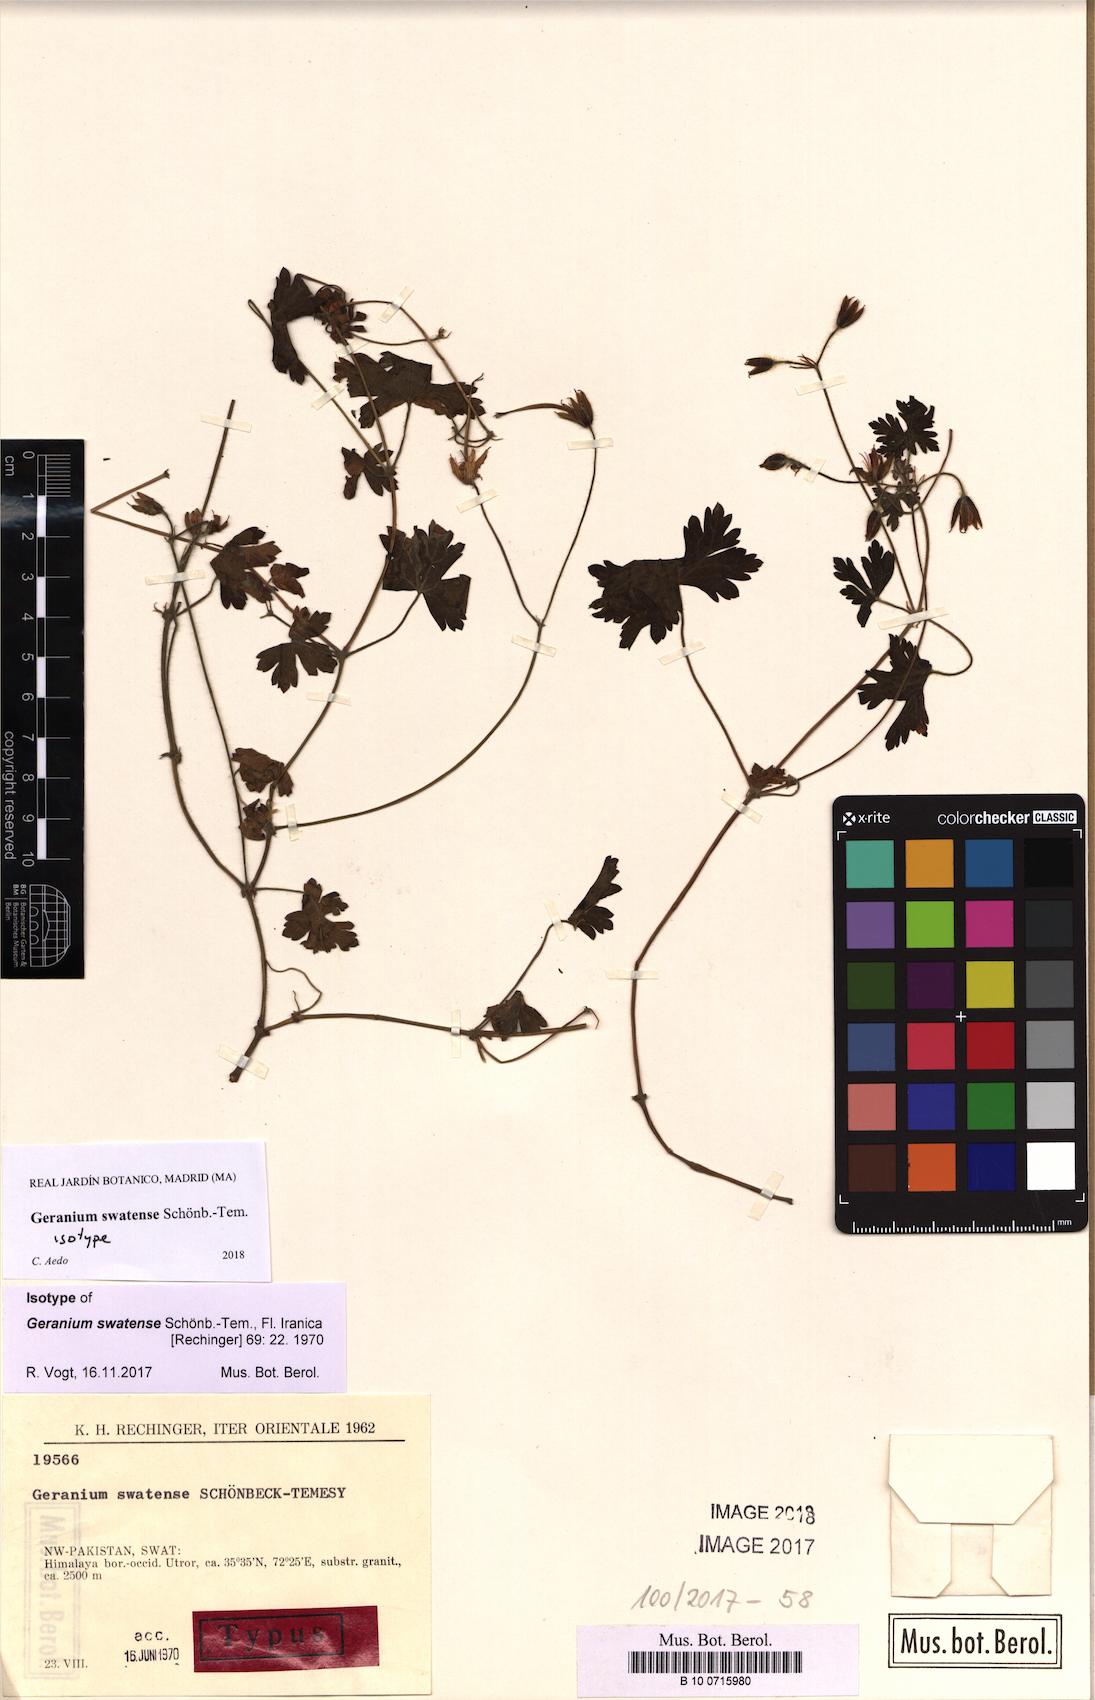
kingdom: Plantae
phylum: Tracheophyta
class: Magnoliopsida
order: Geraniales
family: Geraniaceae
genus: Geranium
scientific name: Geranium collinum
